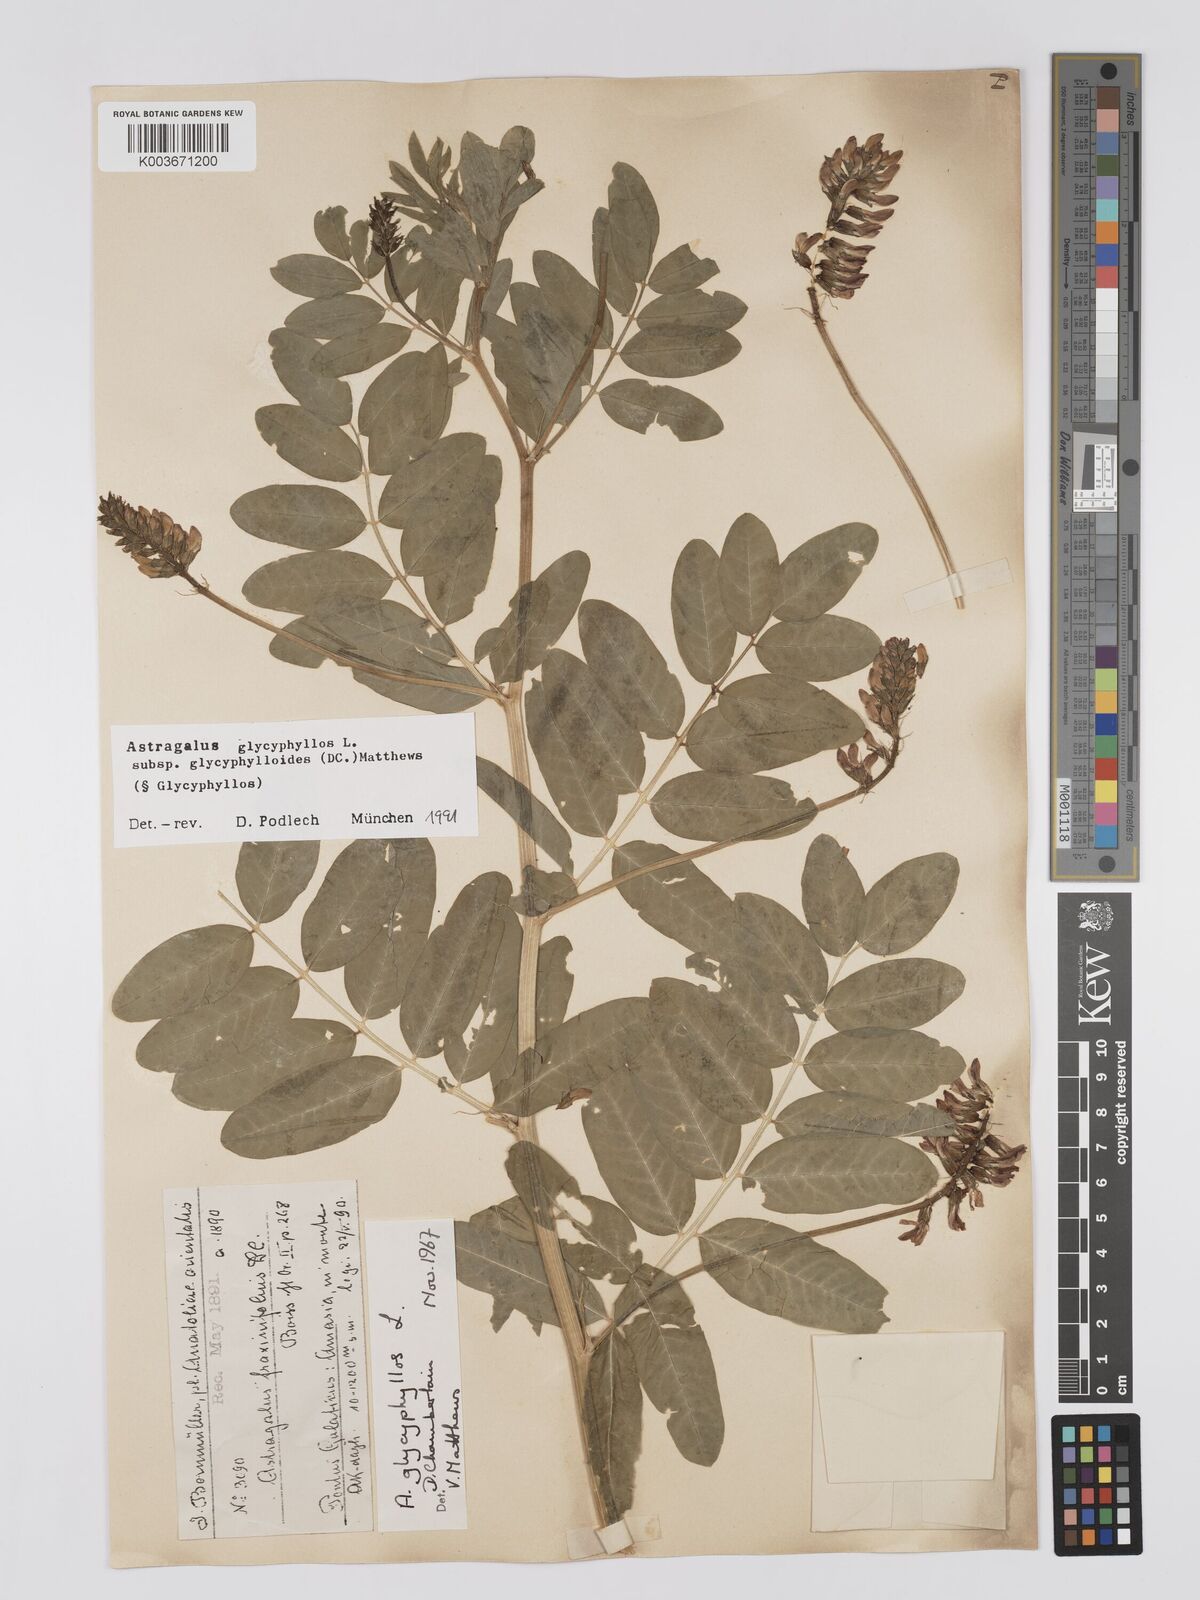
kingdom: Plantae
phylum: Tracheophyta
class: Magnoliopsida
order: Fabales
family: Fabaceae
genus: Astragalus
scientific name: Astragalus glycyphyllos
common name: Wild liquorice
